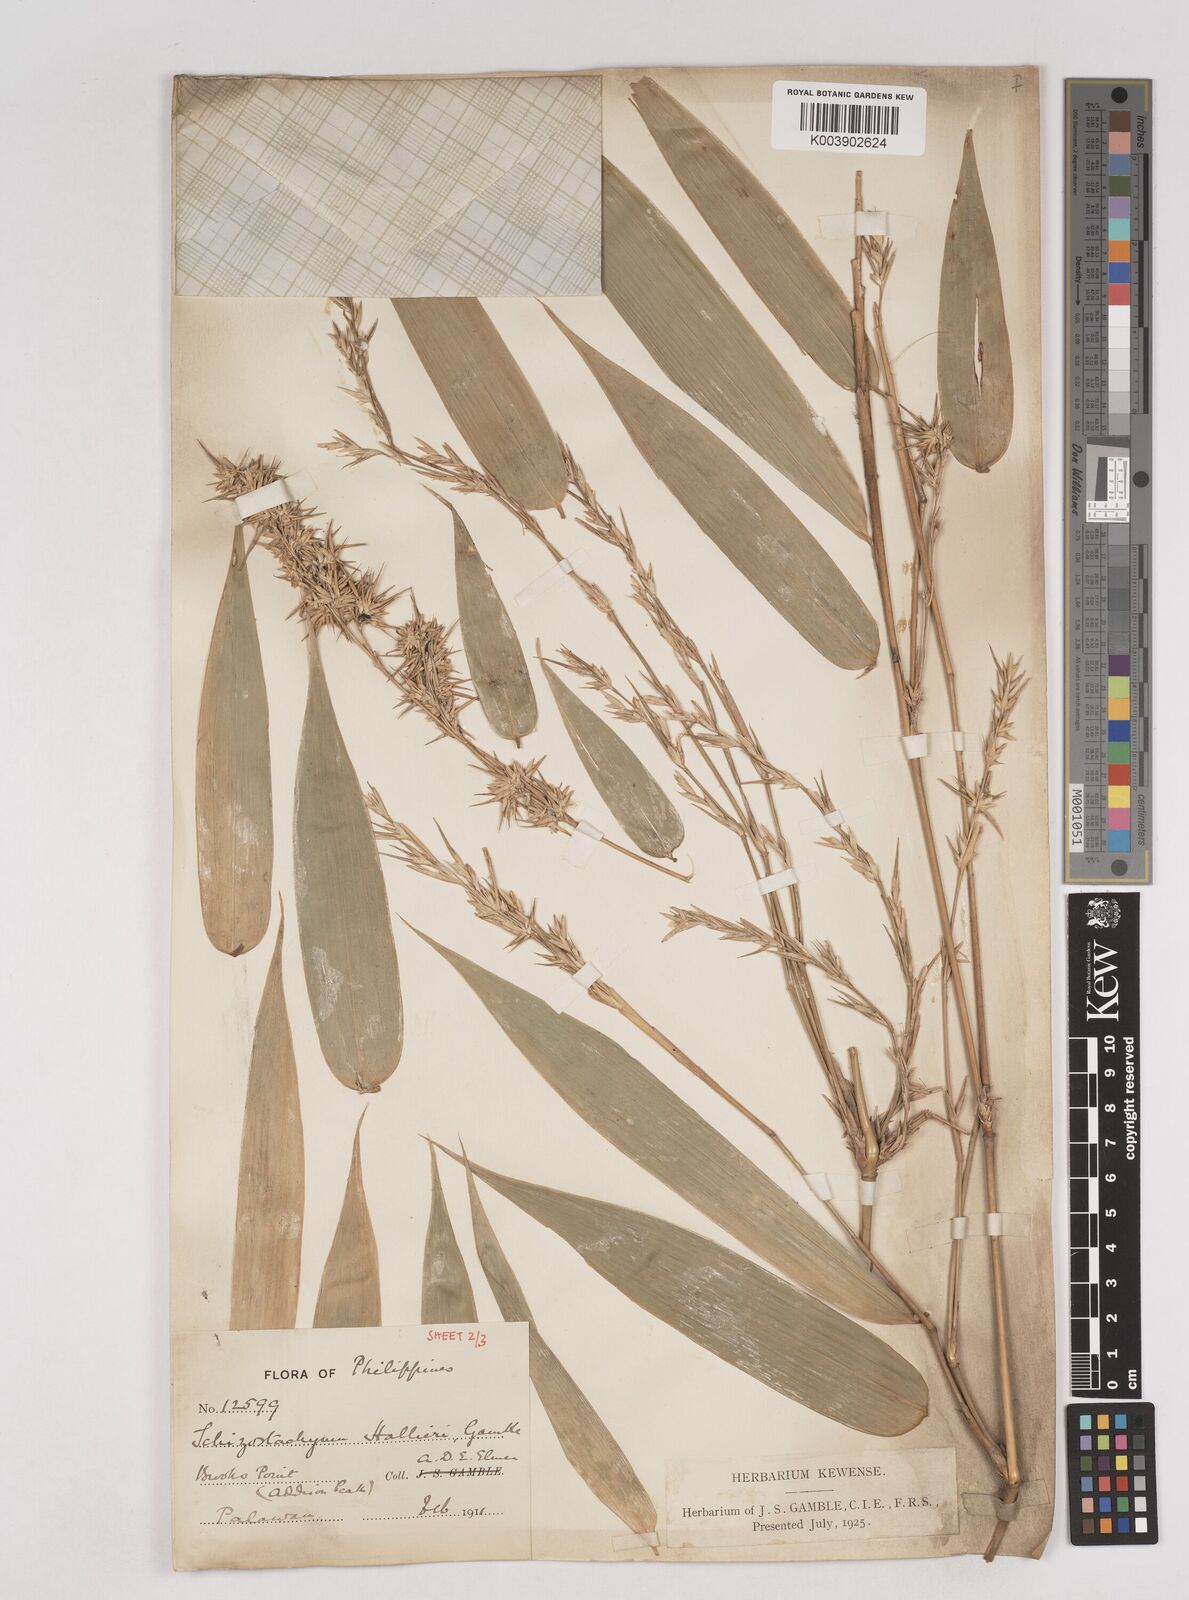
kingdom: Plantae
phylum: Tracheophyta
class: Liliopsida
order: Poales
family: Poaceae
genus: Schizostachyum
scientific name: Schizostachyum lima
